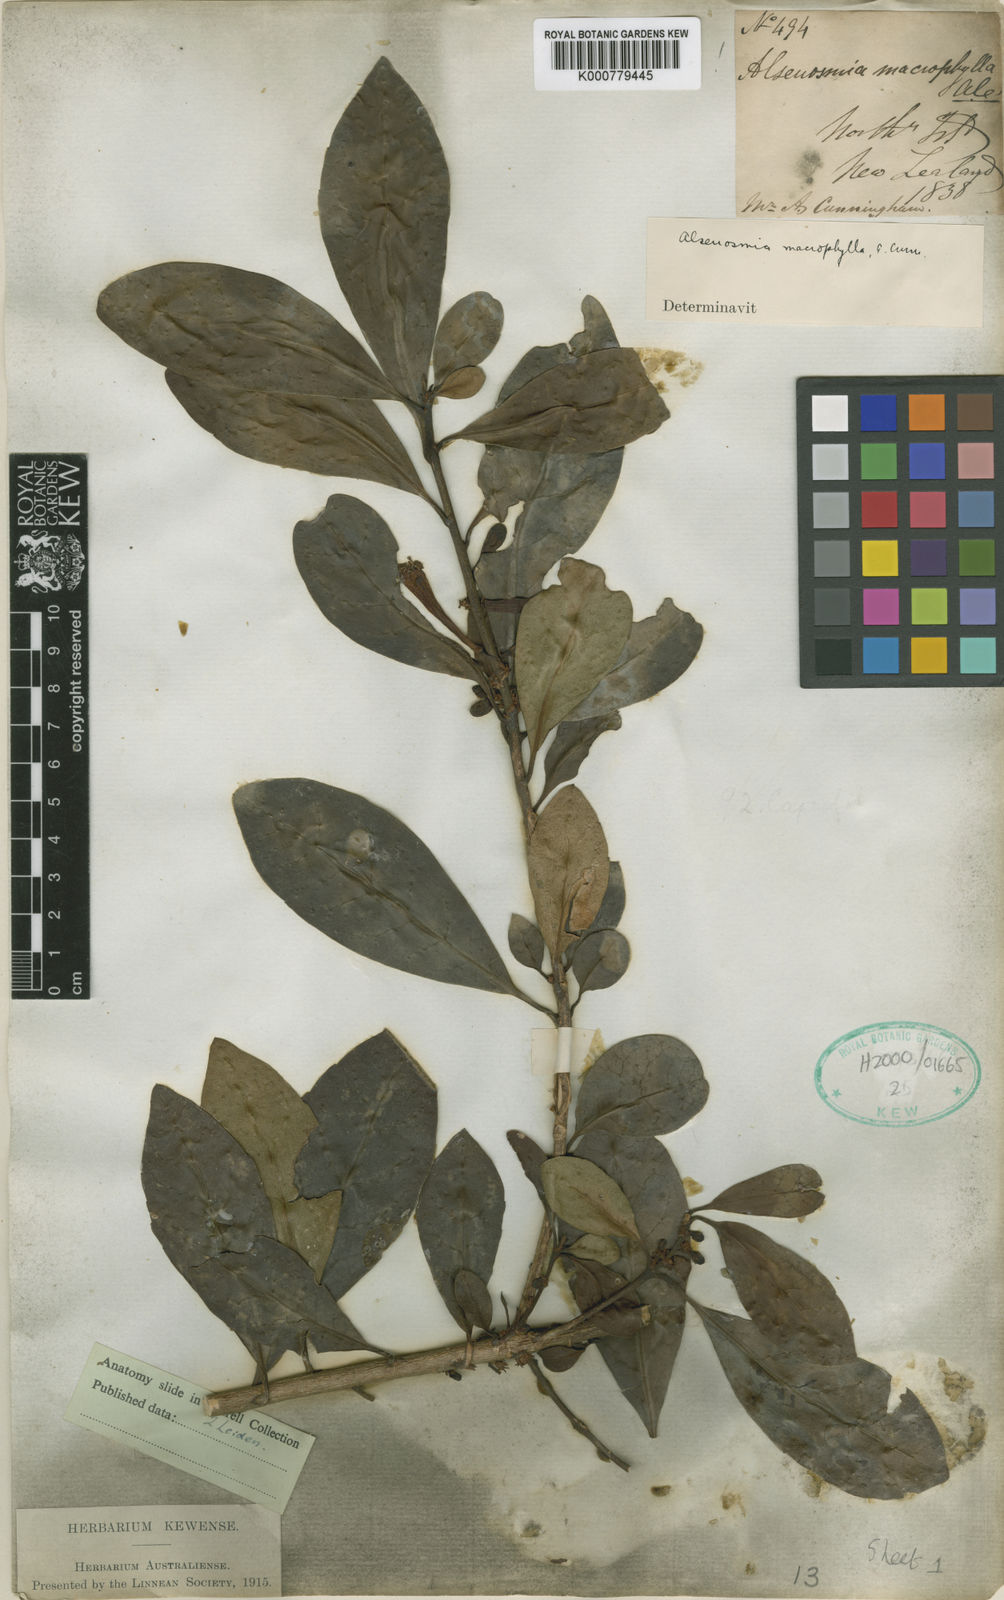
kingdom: Plantae
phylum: Tracheophyta
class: Magnoliopsida
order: Asterales
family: Alseuosmiaceae
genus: Alseuosmia
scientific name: Alseuosmia macrophylla
